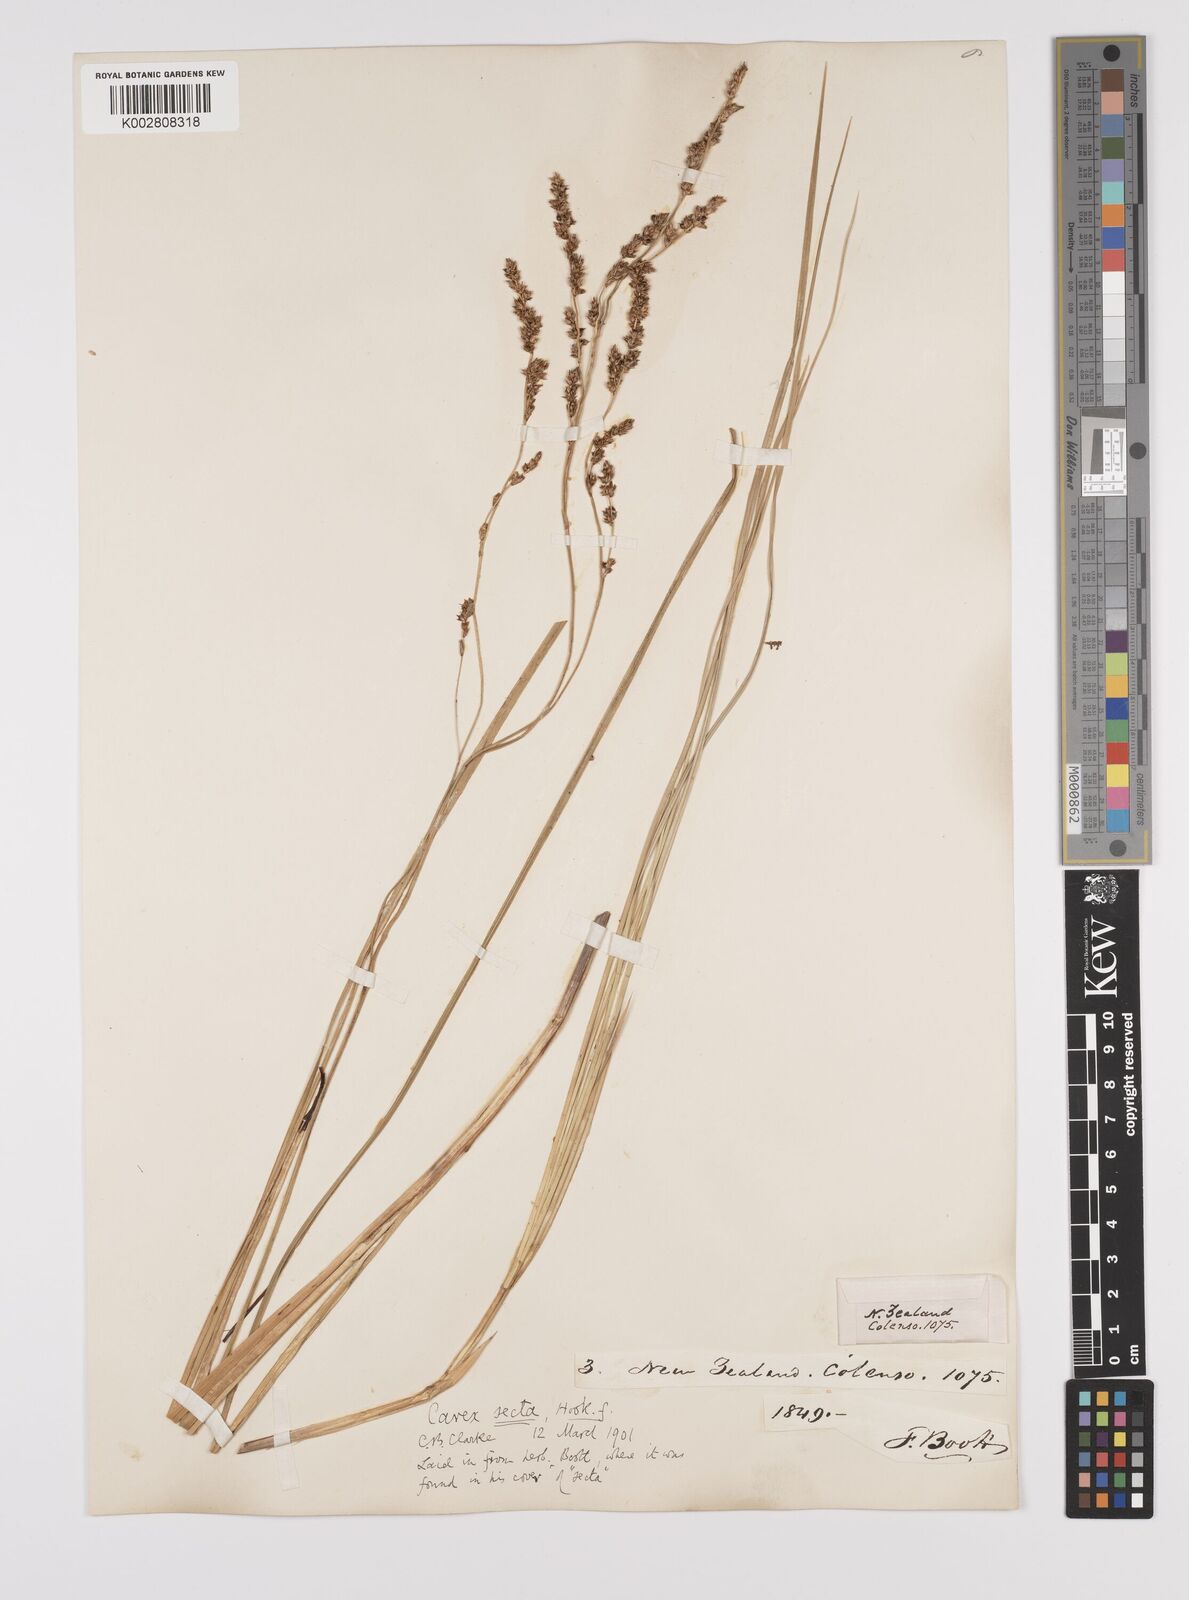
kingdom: Plantae
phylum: Tracheophyta
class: Liliopsida
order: Poales
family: Cyperaceae
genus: Carex
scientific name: Carex appressa
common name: Tussock sedge
